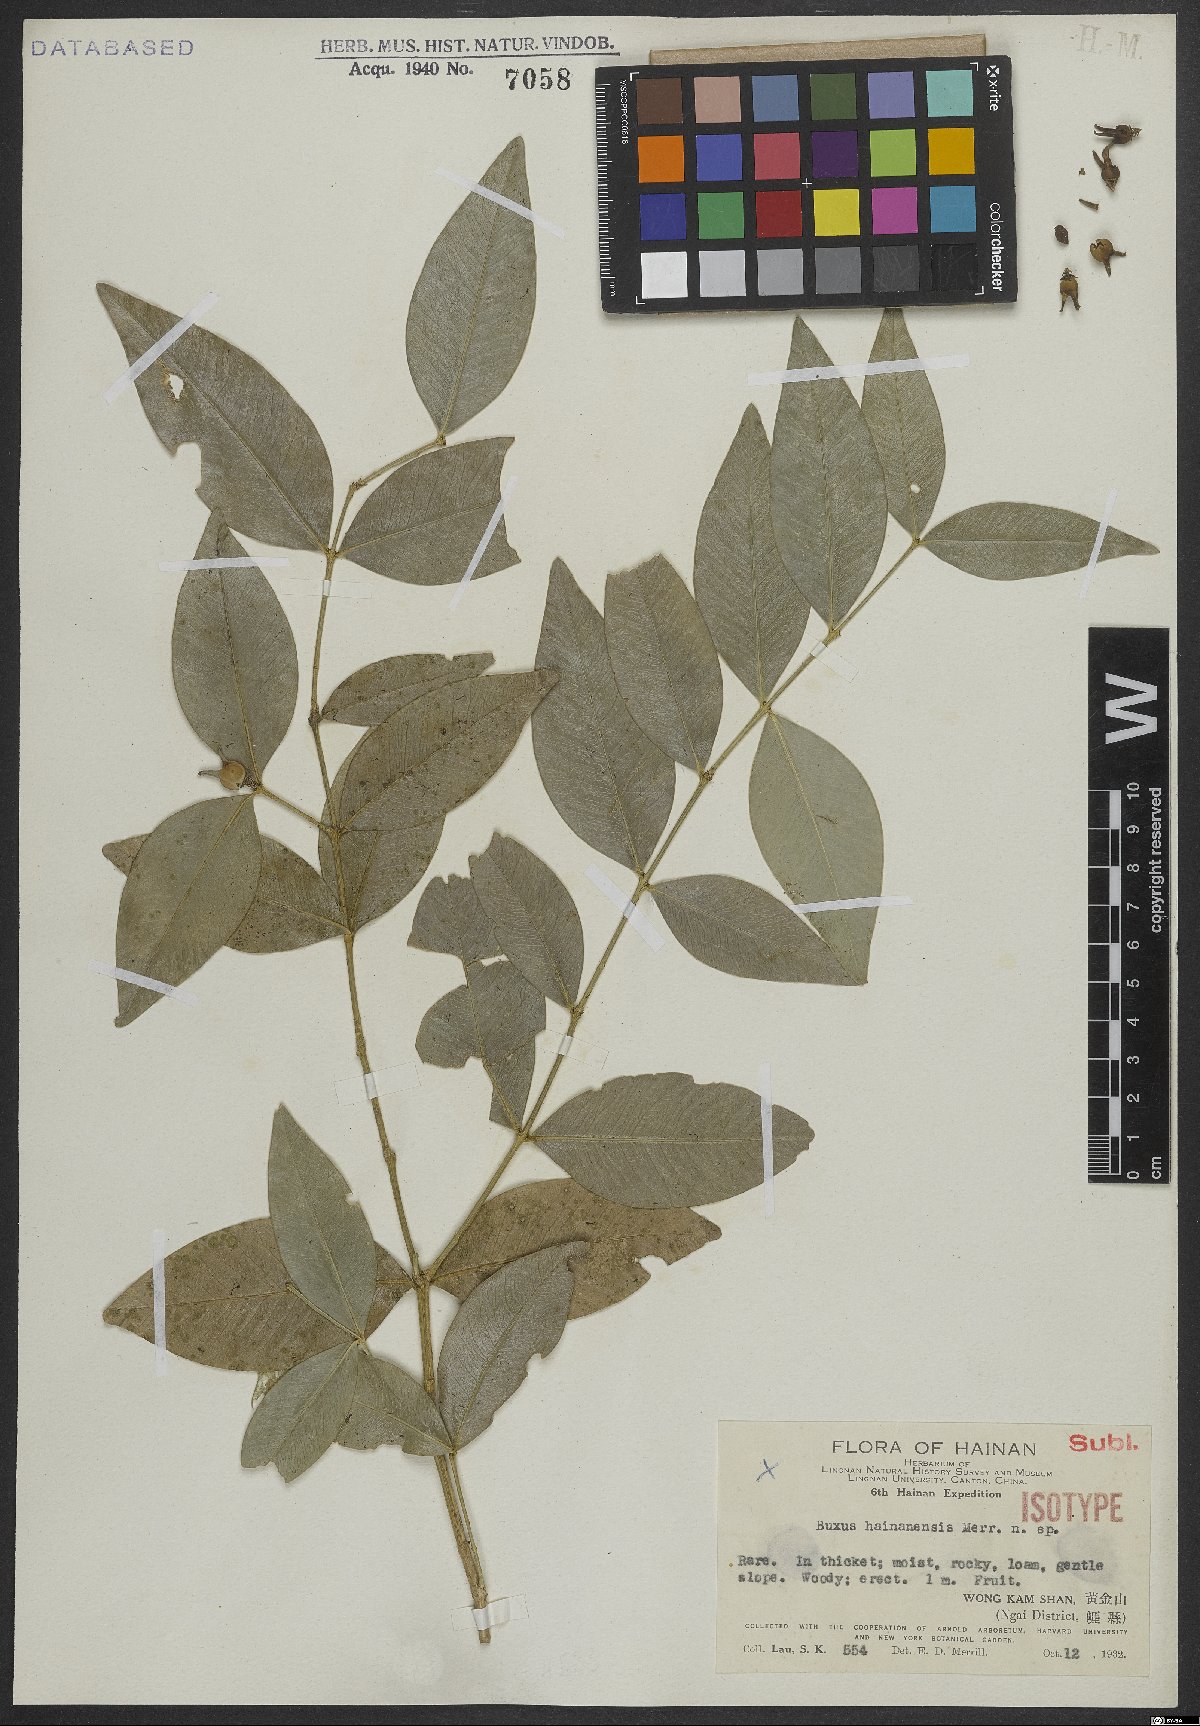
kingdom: Plantae
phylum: Tracheophyta
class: Magnoliopsida
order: Buxales
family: Buxaceae
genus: Buxus
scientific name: Buxus hainanensis
